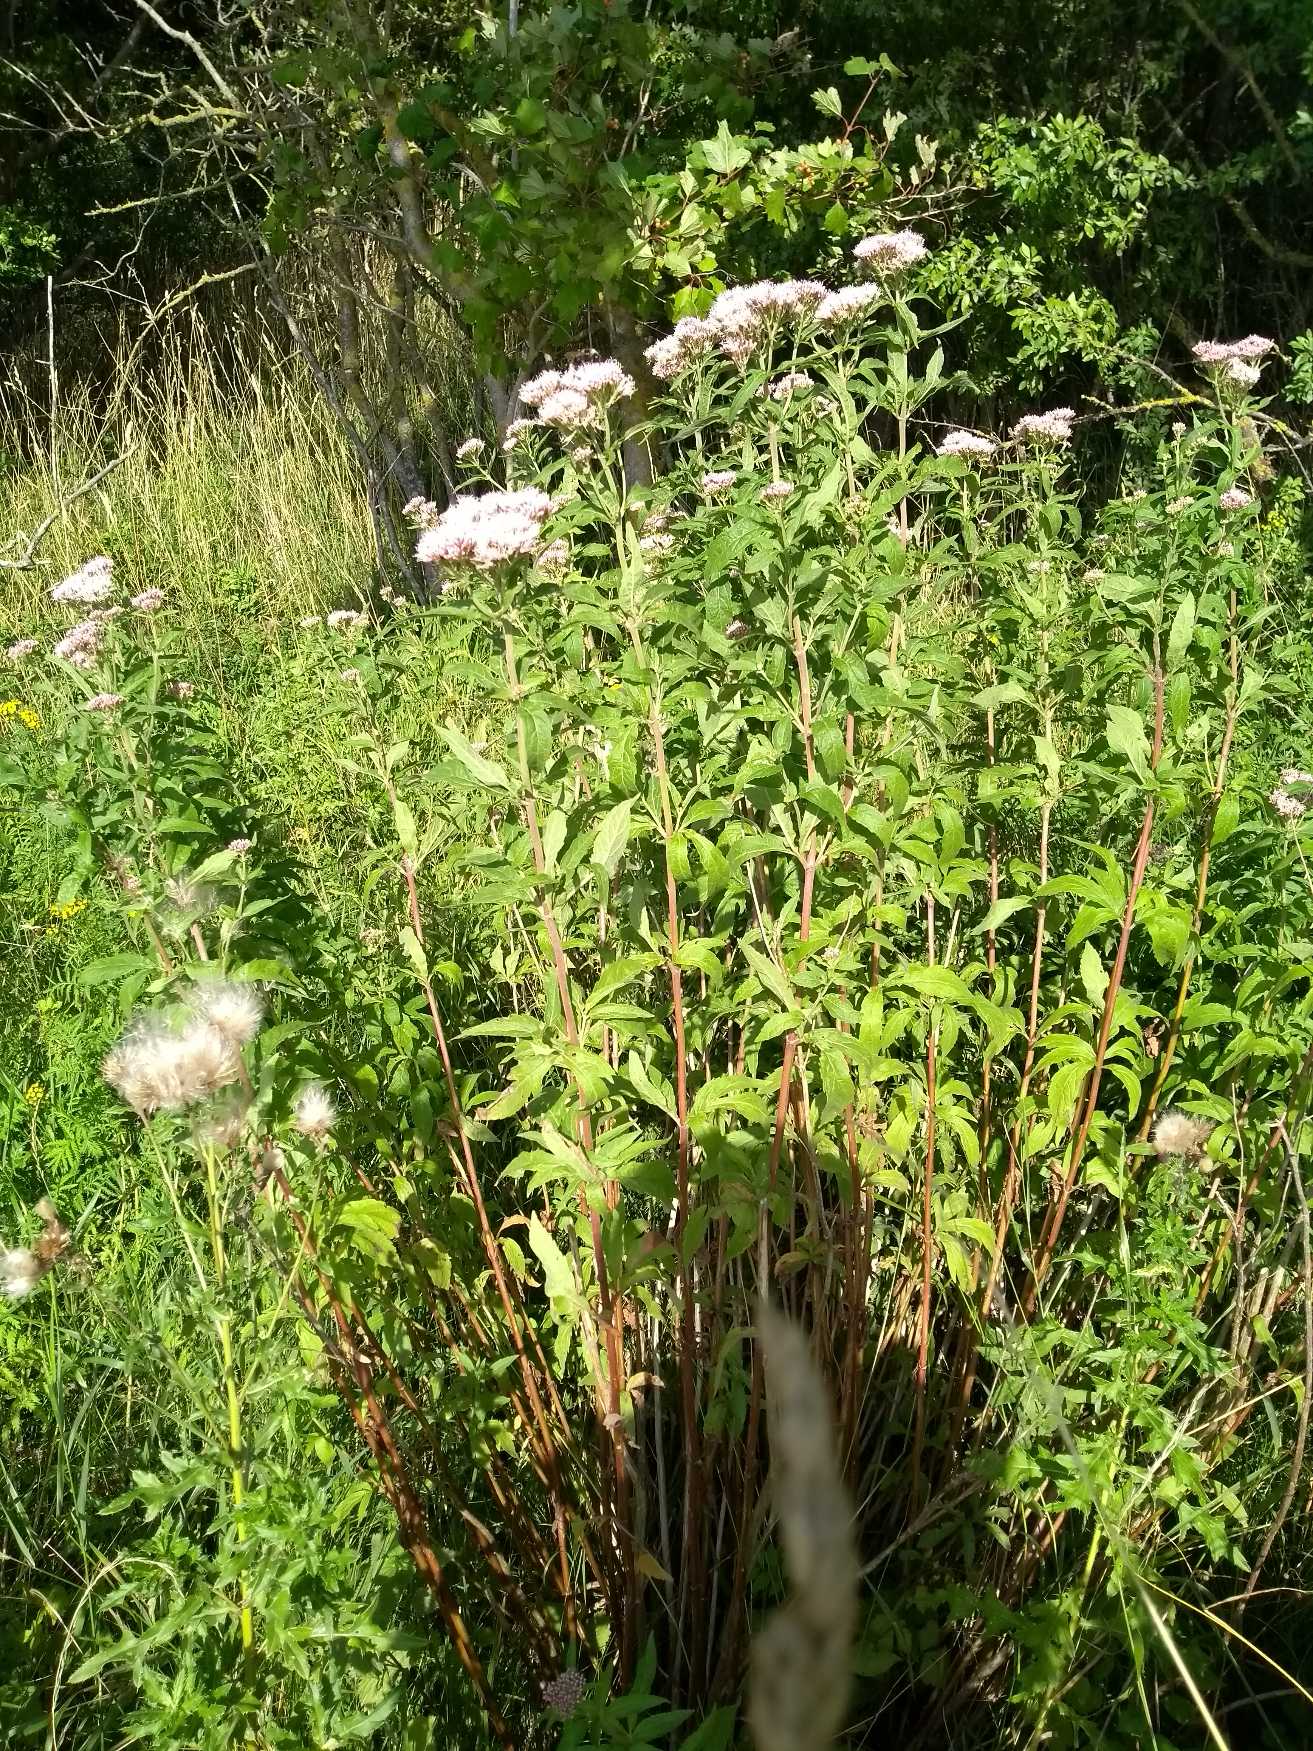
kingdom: Plantae
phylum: Tracheophyta
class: Magnoliopsida
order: Asterales
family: Asteraceae
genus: Eupatorium
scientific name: Eupatorium cannabinum
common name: Hjortetrøst
